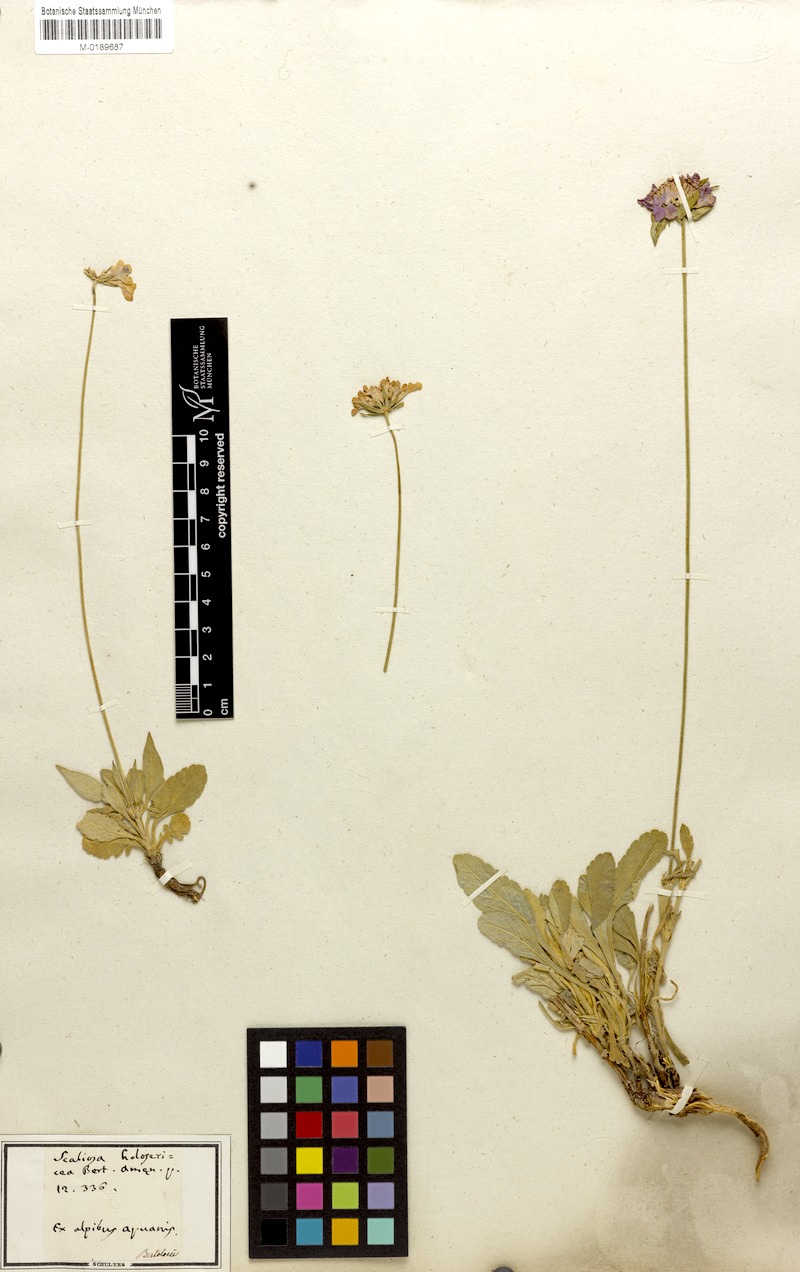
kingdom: Plantae
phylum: Tracheophyta
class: Magnoliopsida
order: Dipsacales
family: Caprifoliaceae
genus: Scabiosa
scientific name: Scabiosa holosericea
